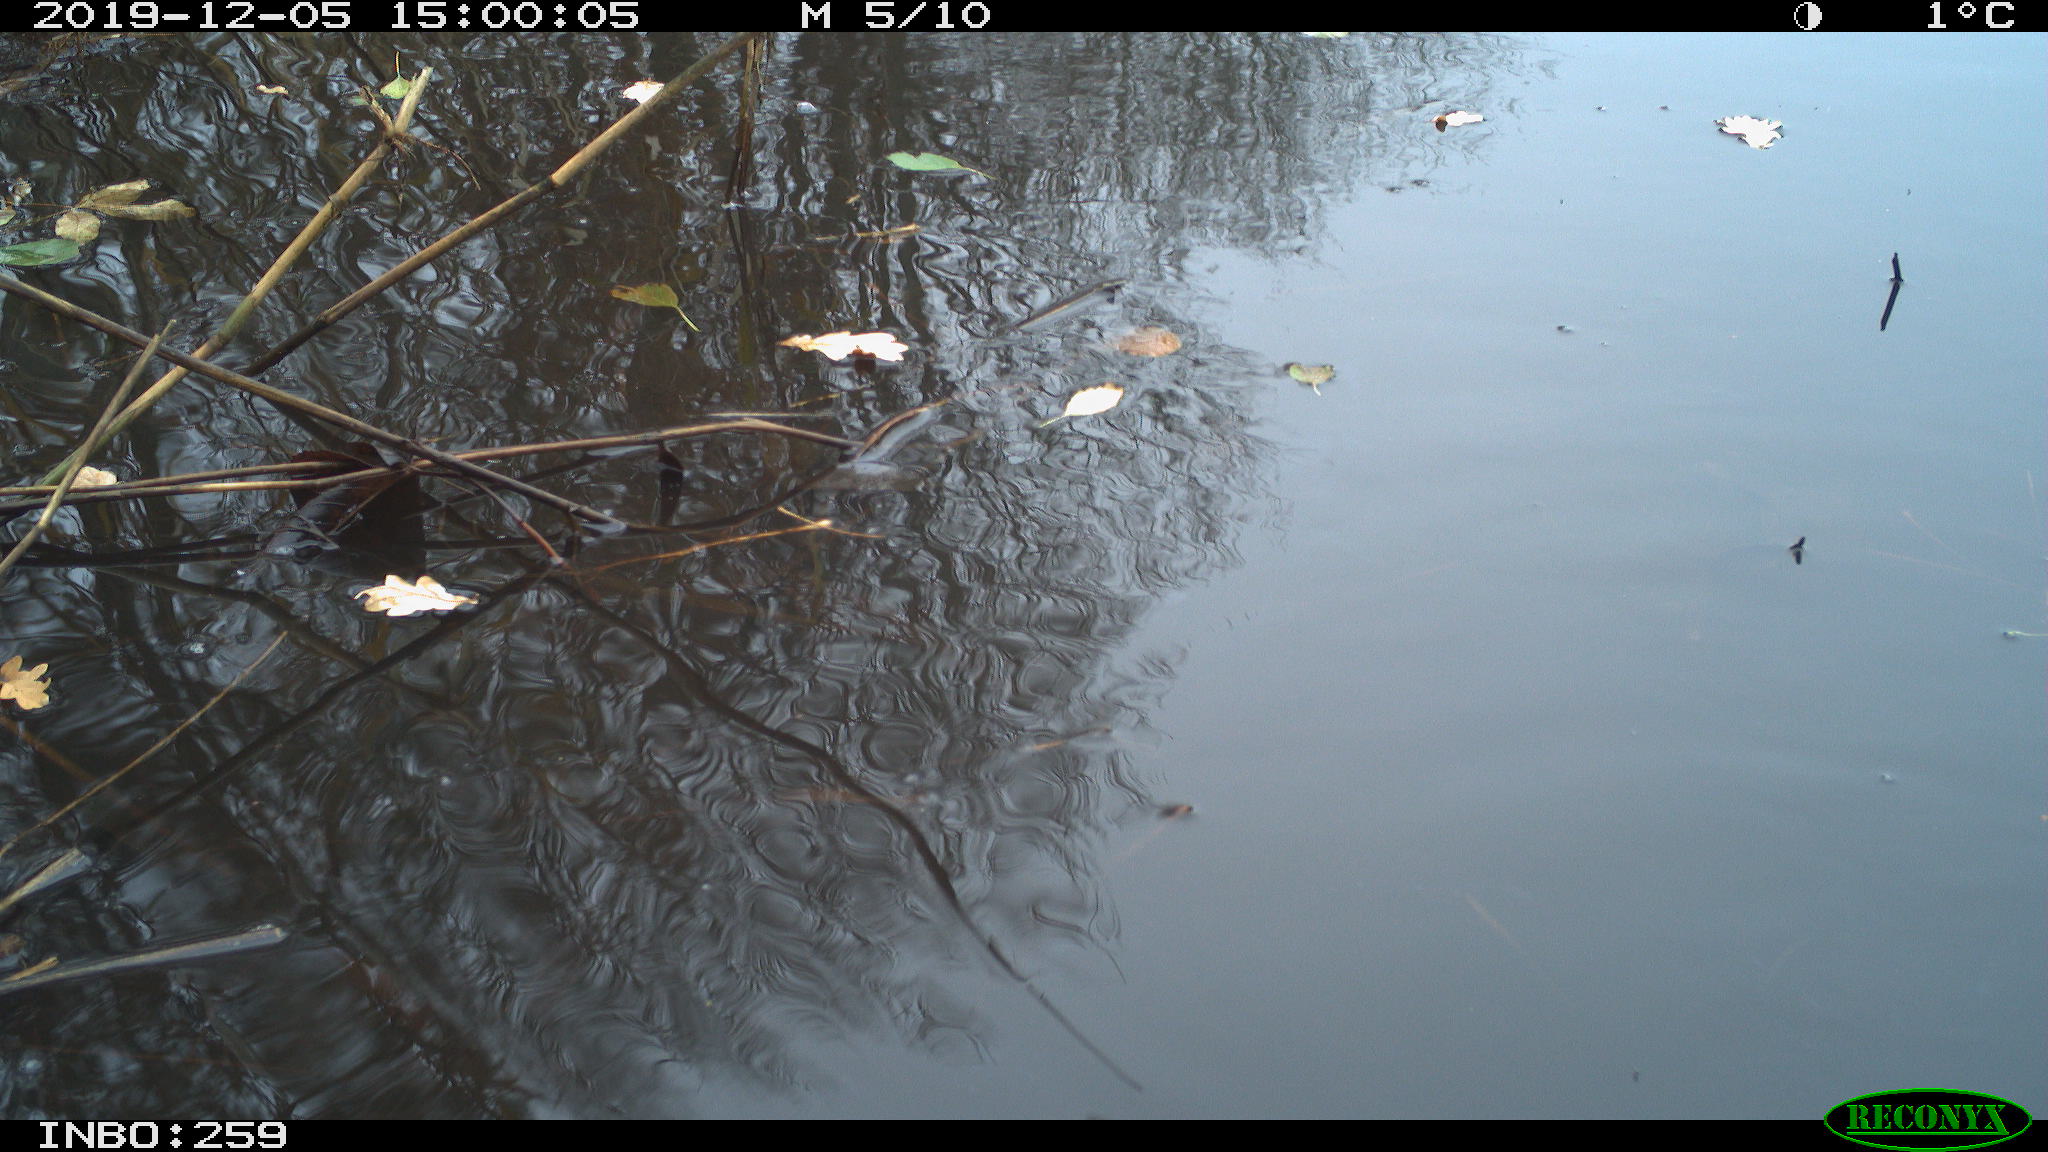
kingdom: Animalia
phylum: Chordata
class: Aves
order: Gruiformes
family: Rallidae
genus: Gallinula
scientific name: Gallinula chloropus
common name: Common moorhen
